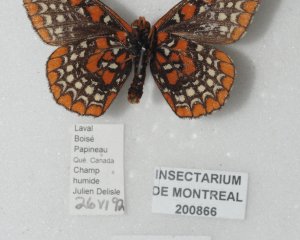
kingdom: Animalia
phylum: Arthropoda
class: Insecta
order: Lepidoptera
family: Nymphalidae
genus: Euphydryas
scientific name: Euphydryas phaeton
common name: Baltimore Checkerspot
